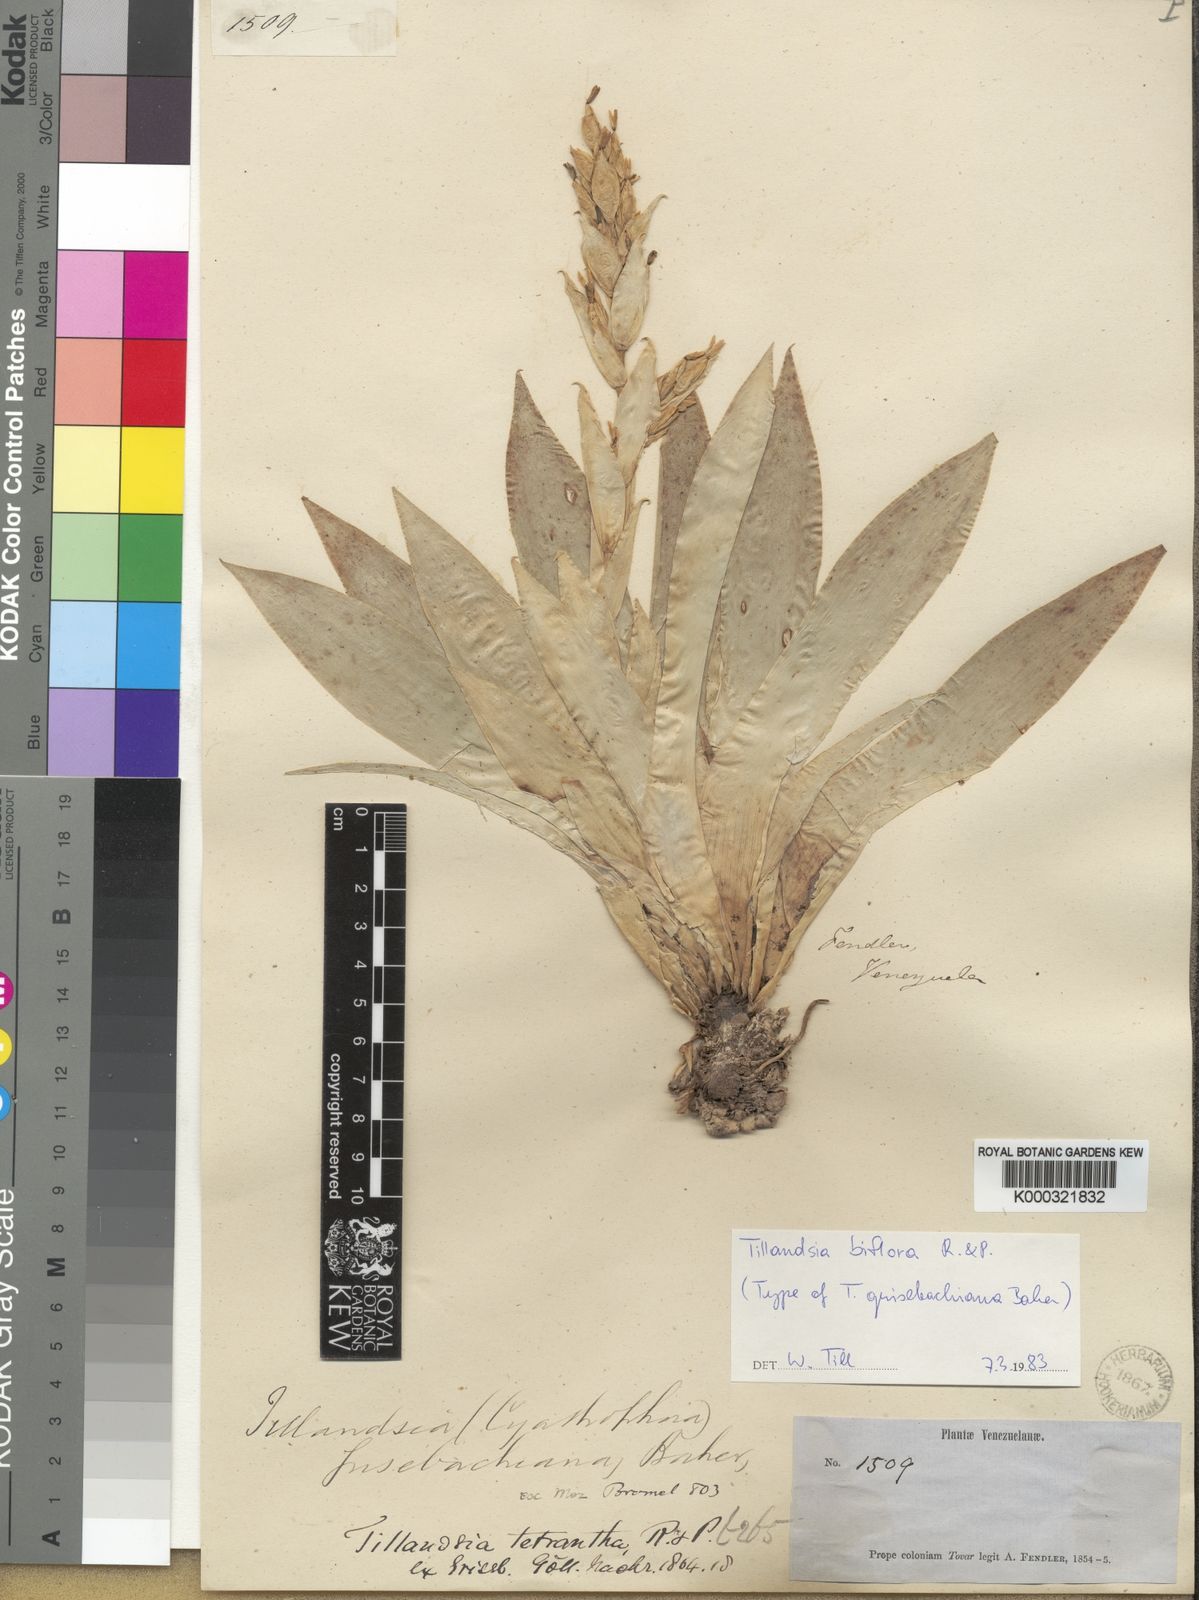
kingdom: Plantae
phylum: Tracheophyta
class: Liliopsida
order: Poales
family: Bromeliaceae
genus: Tillandsia
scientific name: Tillandsia biflora
